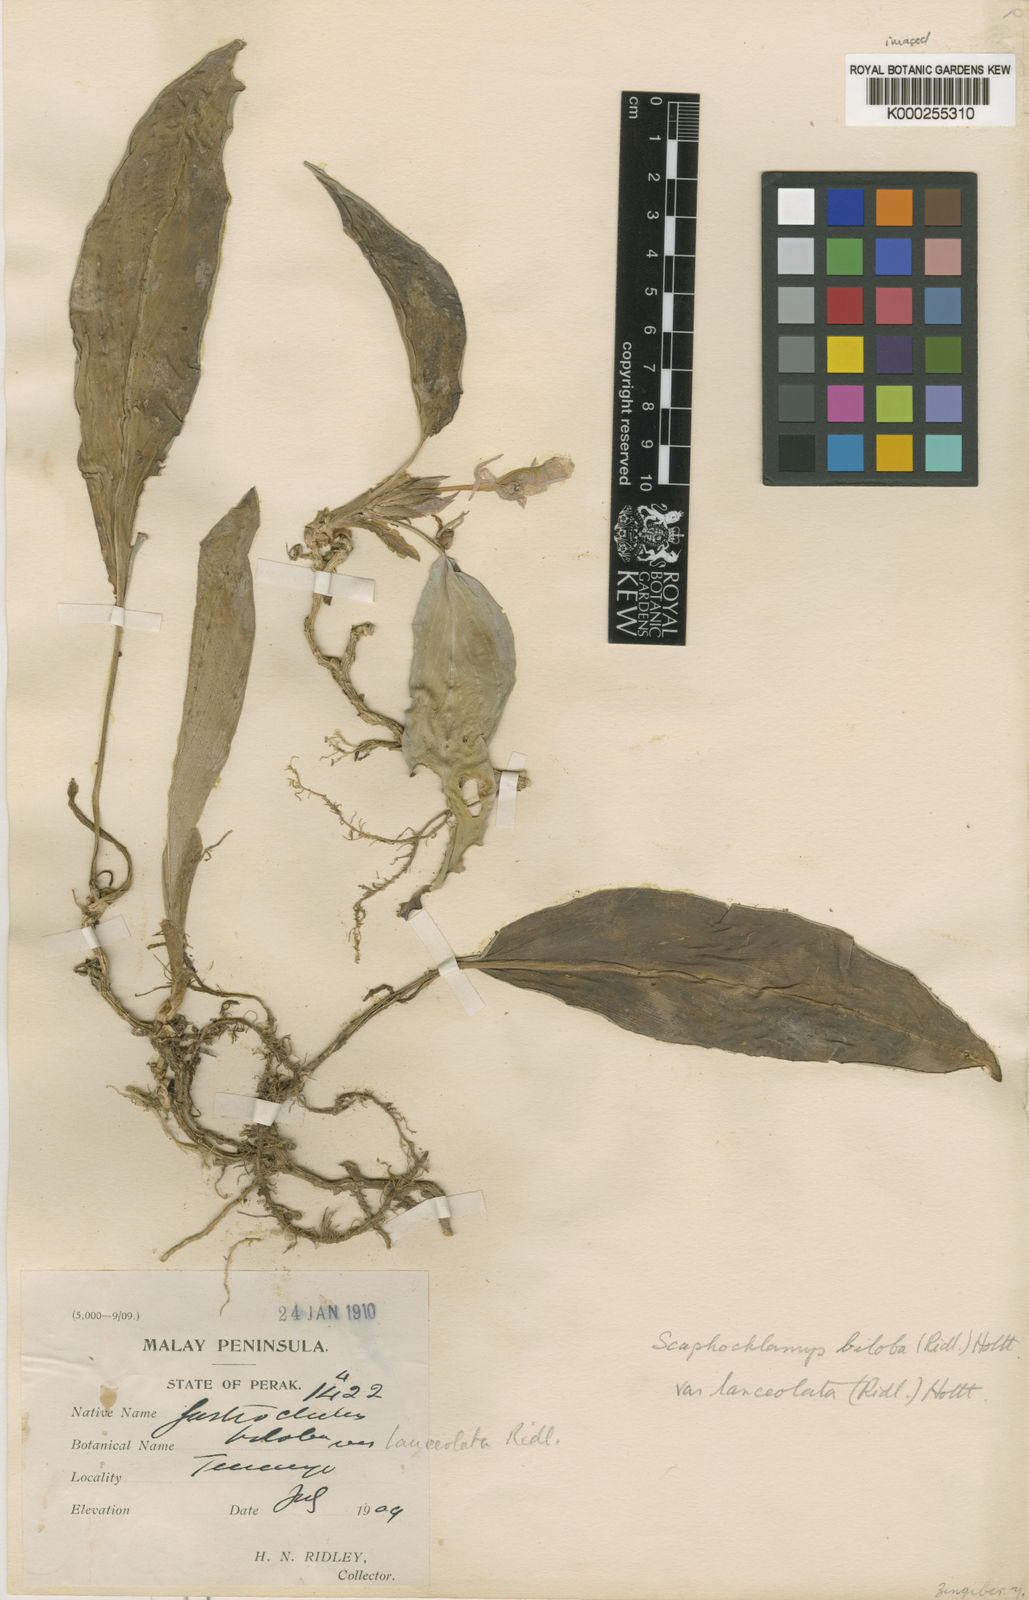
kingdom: Plantae
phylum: Tracheophyta
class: Liliopsida
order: Zingiberales
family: Zingiberaceae
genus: Scaphochlamys
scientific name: Scaphochlamys biloba
